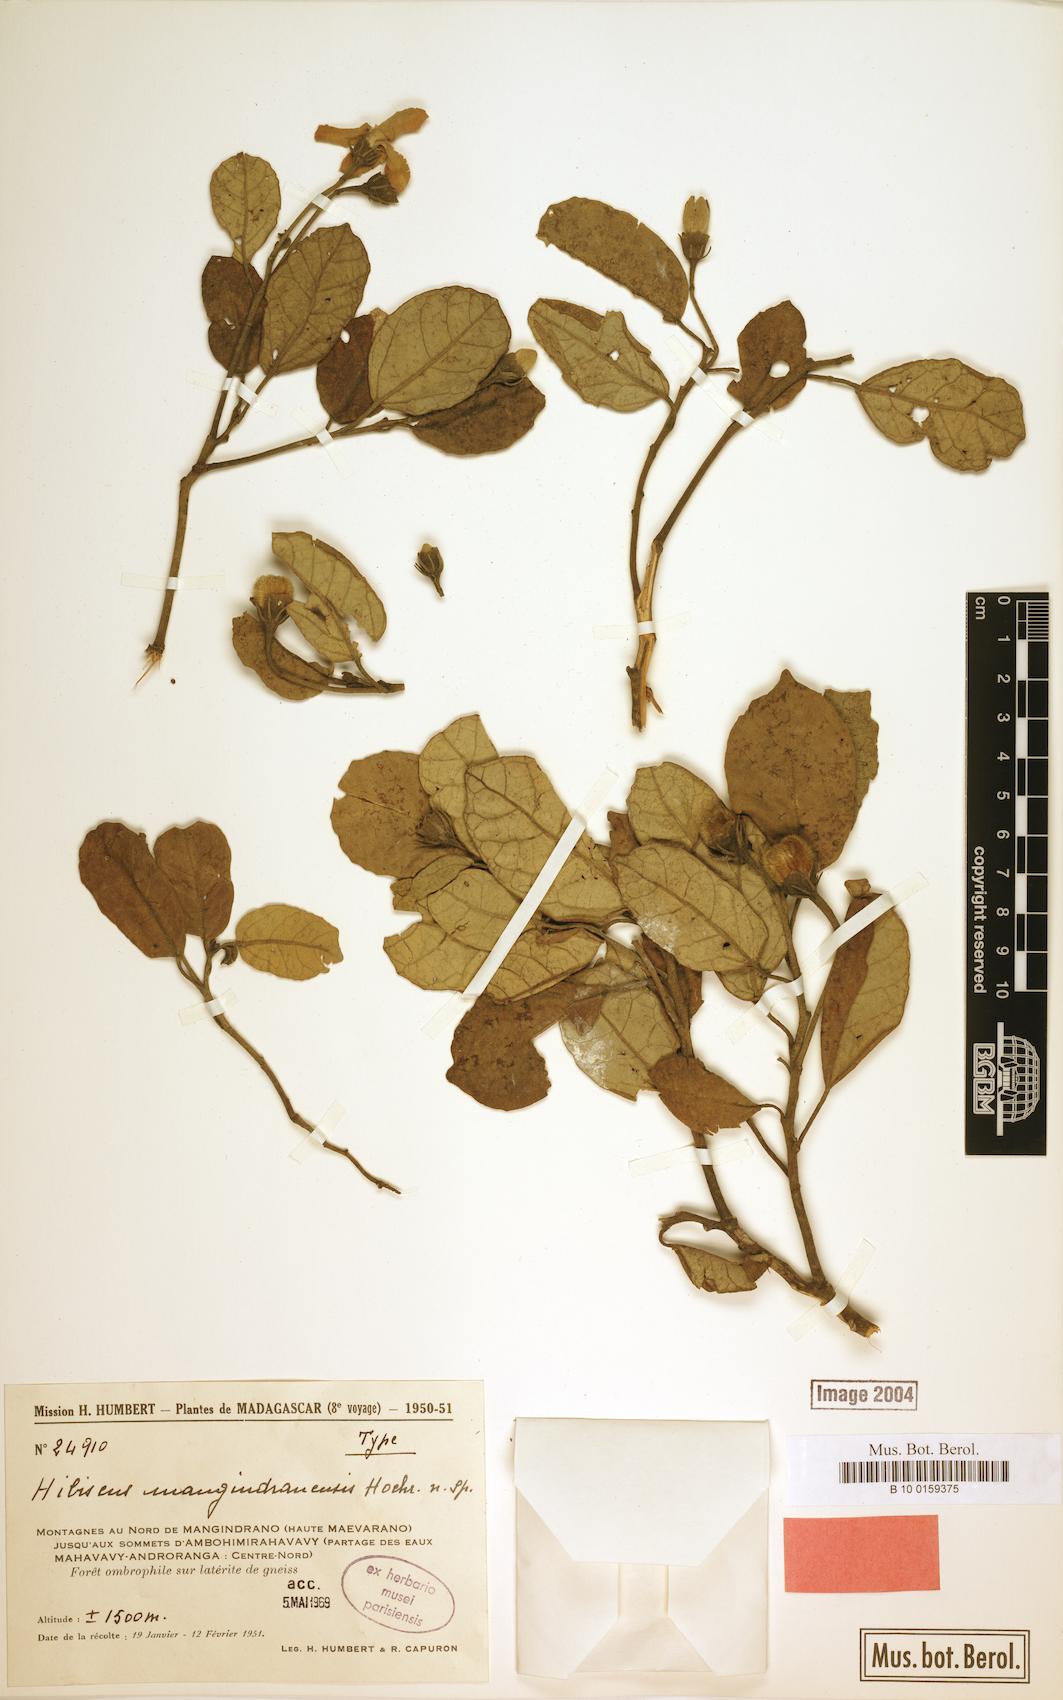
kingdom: Plantae
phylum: Tracheophyta
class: Magnoliopsida
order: Malvales
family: Malvaceae
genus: Hibiscus
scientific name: Hibiscus mangindranensis
